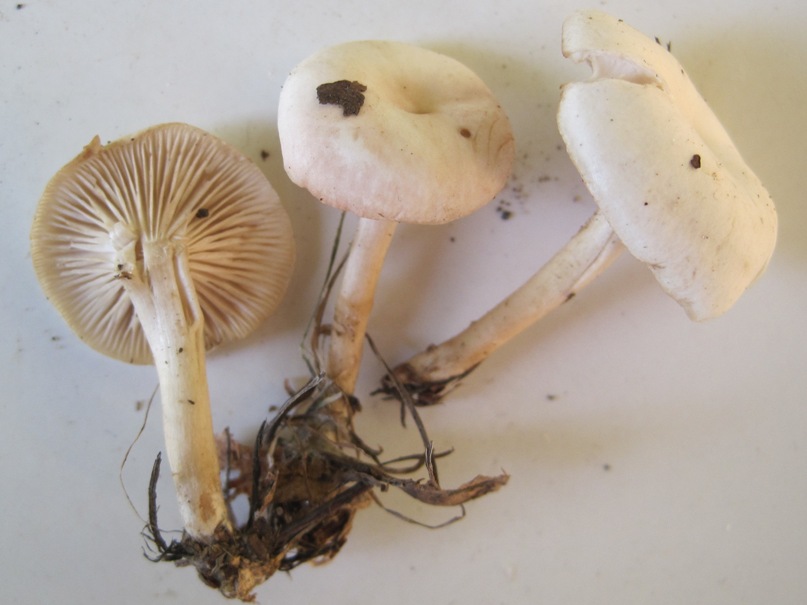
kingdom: Fungi
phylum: Basidiomycota
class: Agaricomycetes
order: Agaricales
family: Tricholomataceae
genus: Clitocybe
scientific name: Clitocybe rivulosa
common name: eng-tragthat
